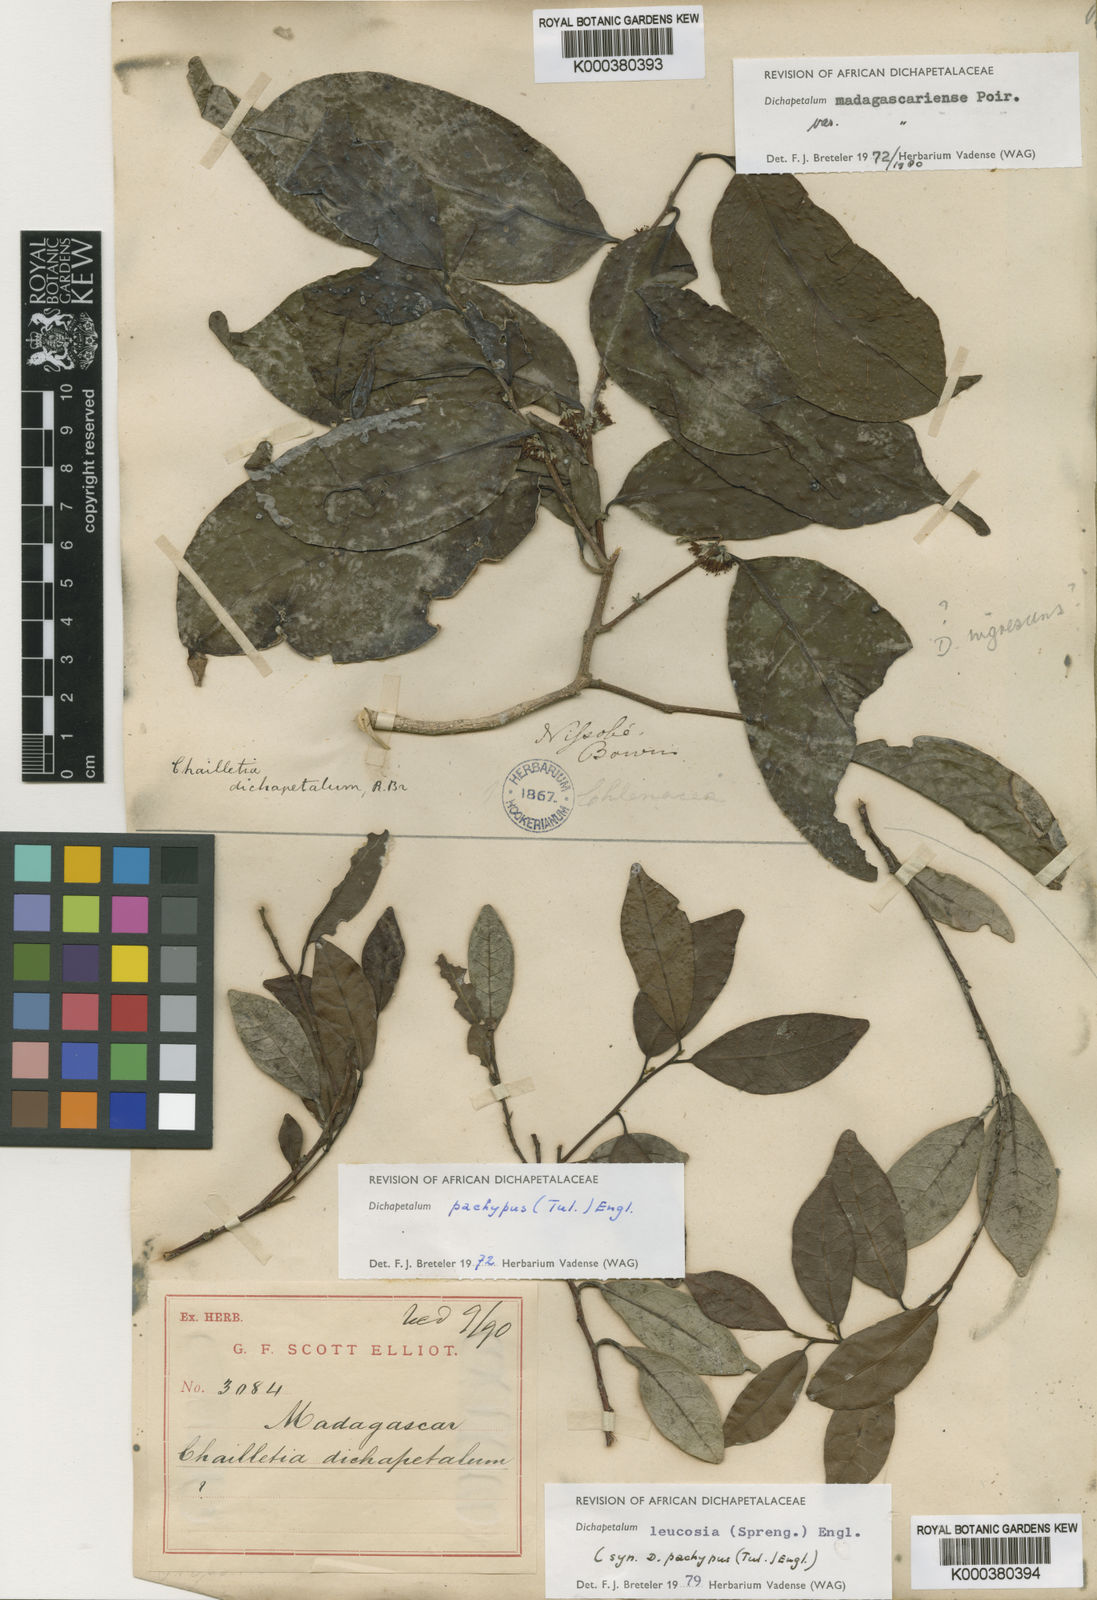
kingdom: Plantae
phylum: Tracheophyta
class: Magnoliopsida
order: Malpighiales
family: Dichapetalaceae
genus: Dichapetalum
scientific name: Dichapetalum
